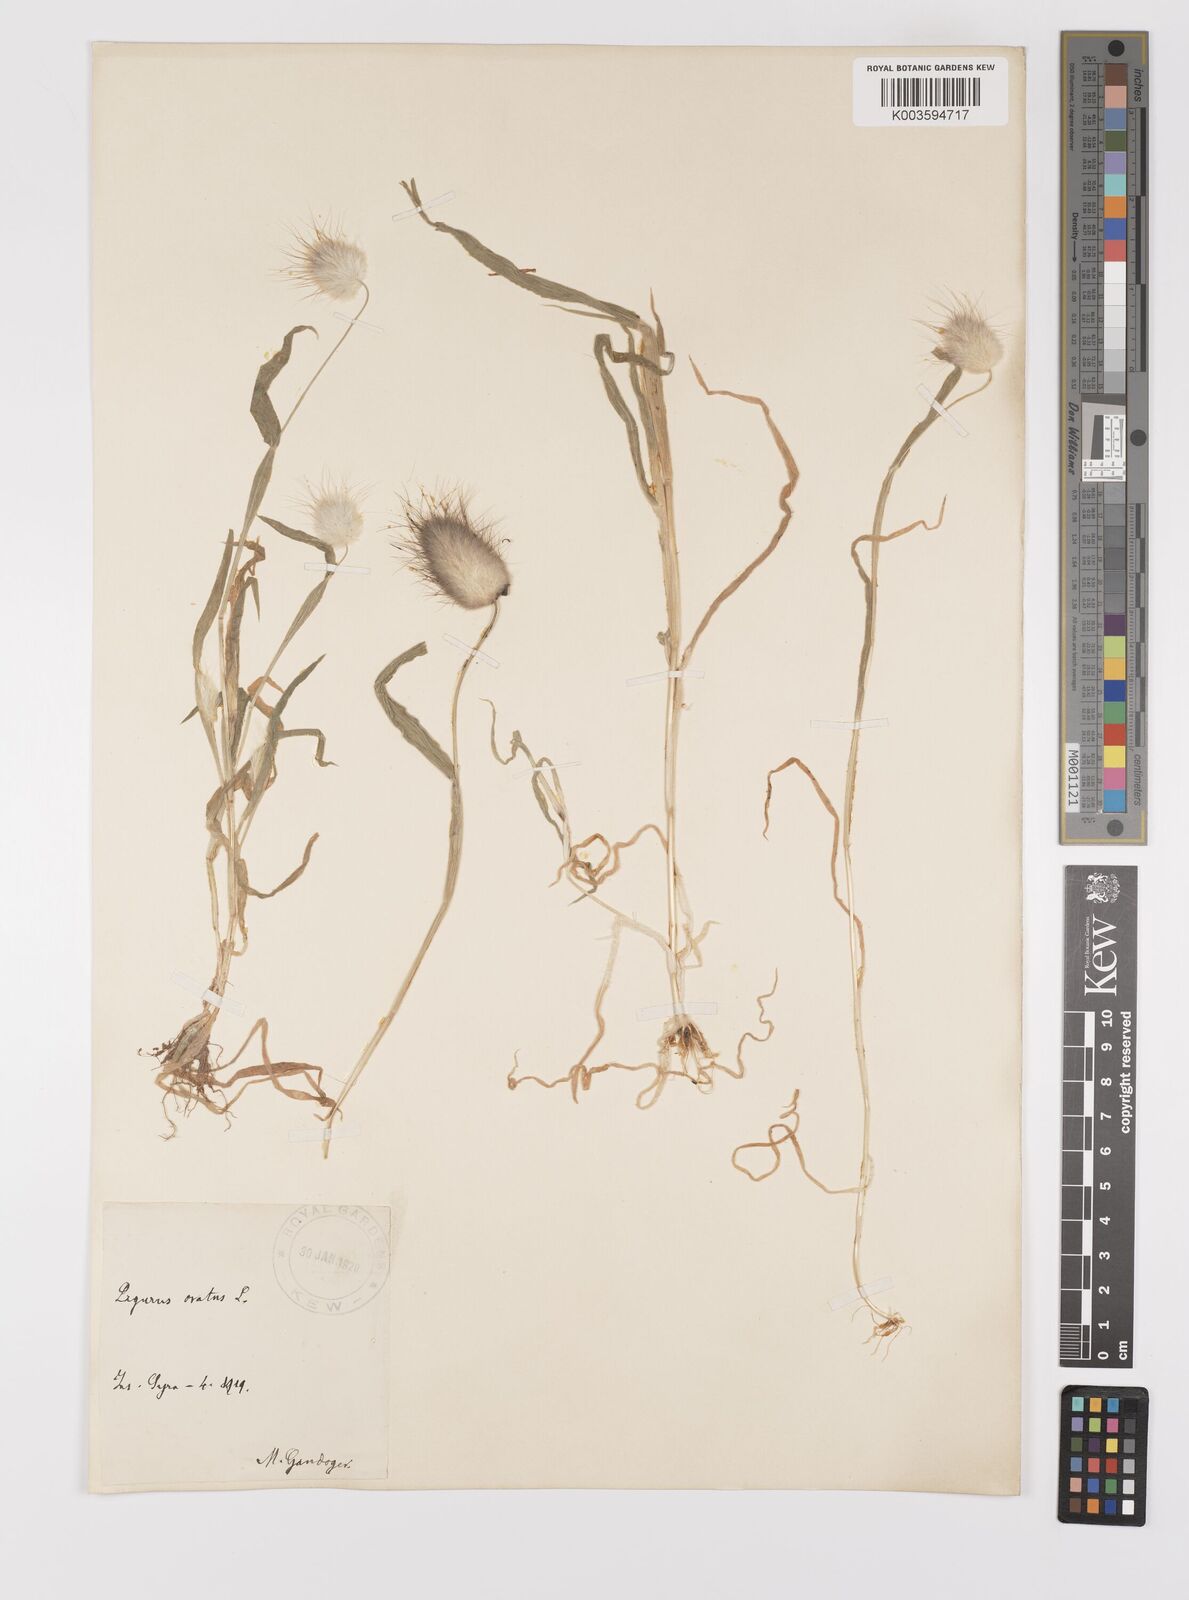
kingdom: Plantae
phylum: Tracheophyta
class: Liliopsida
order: Poales
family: Poaceae
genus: Lagurus
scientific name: Lagurus ovatus
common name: Hare's-tail
